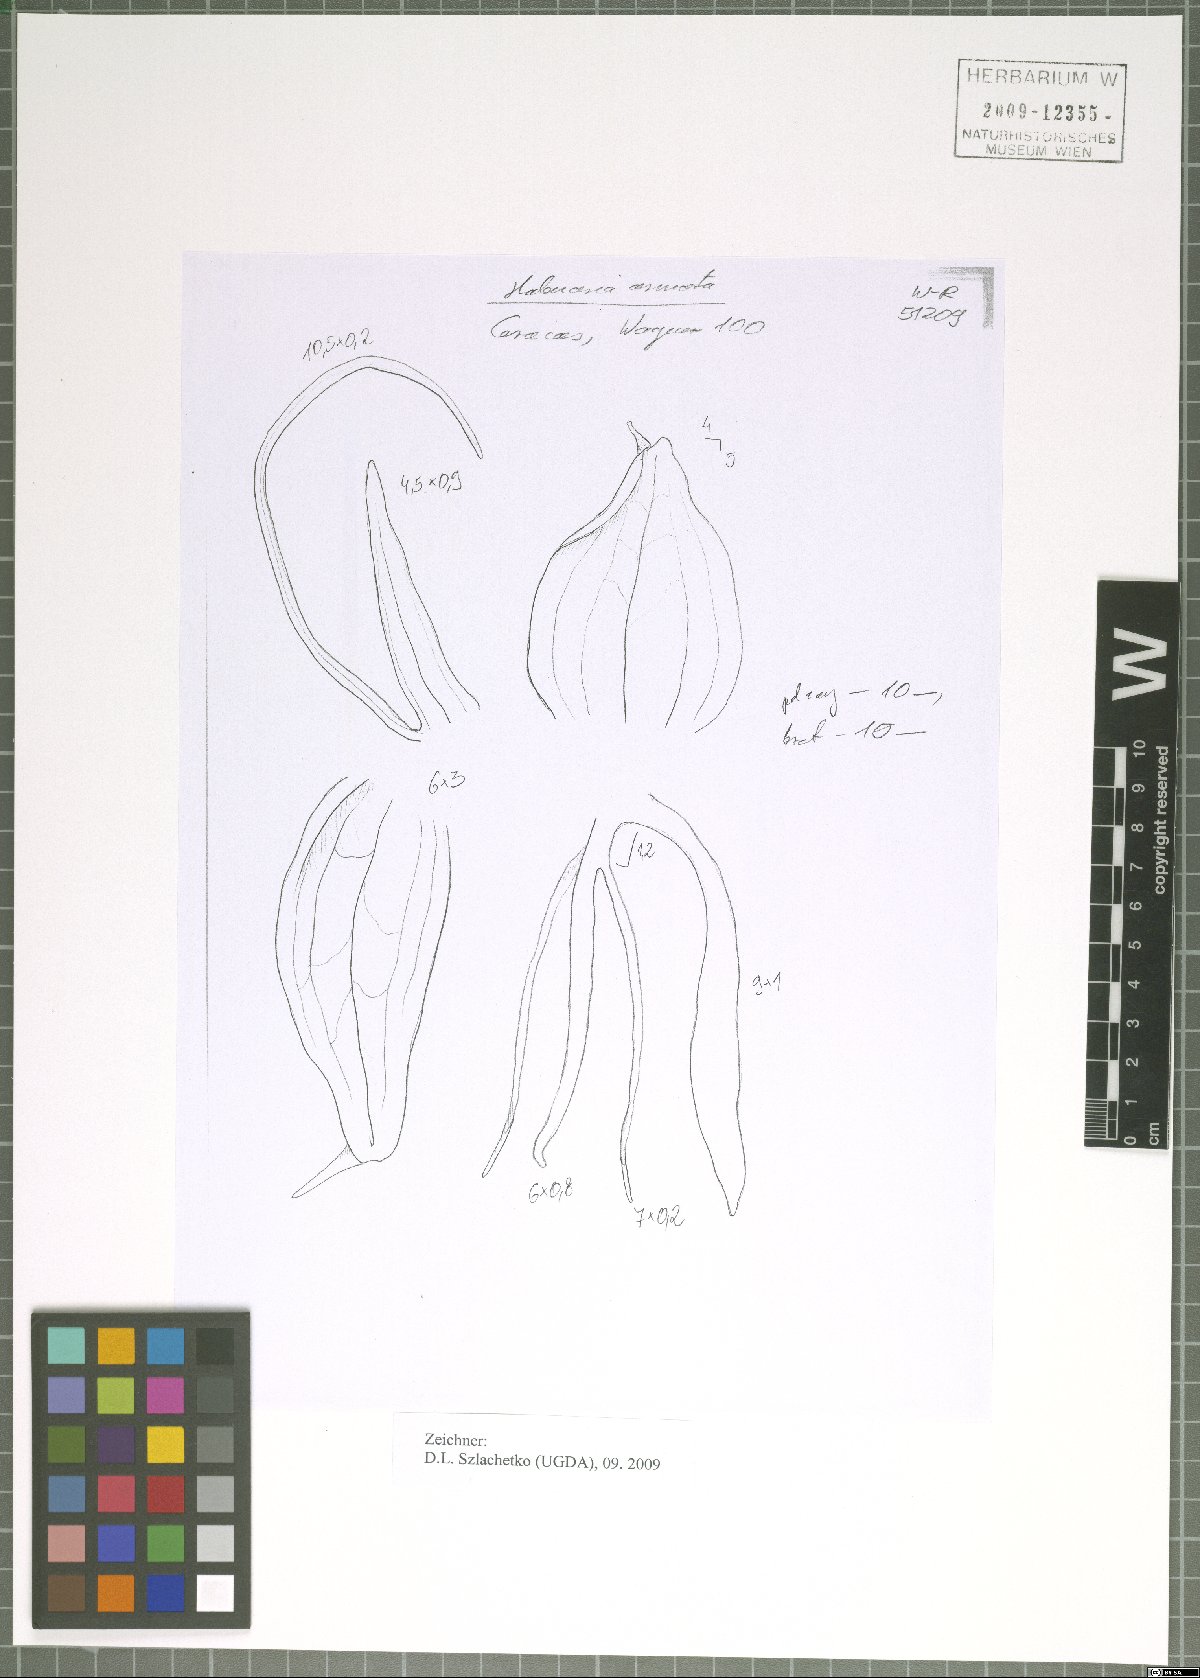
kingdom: Plantae
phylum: Tracheophyta
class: Liliopsida
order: Asparagales
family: Orchidaceae
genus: Habenaria
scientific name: Habenaria armata
